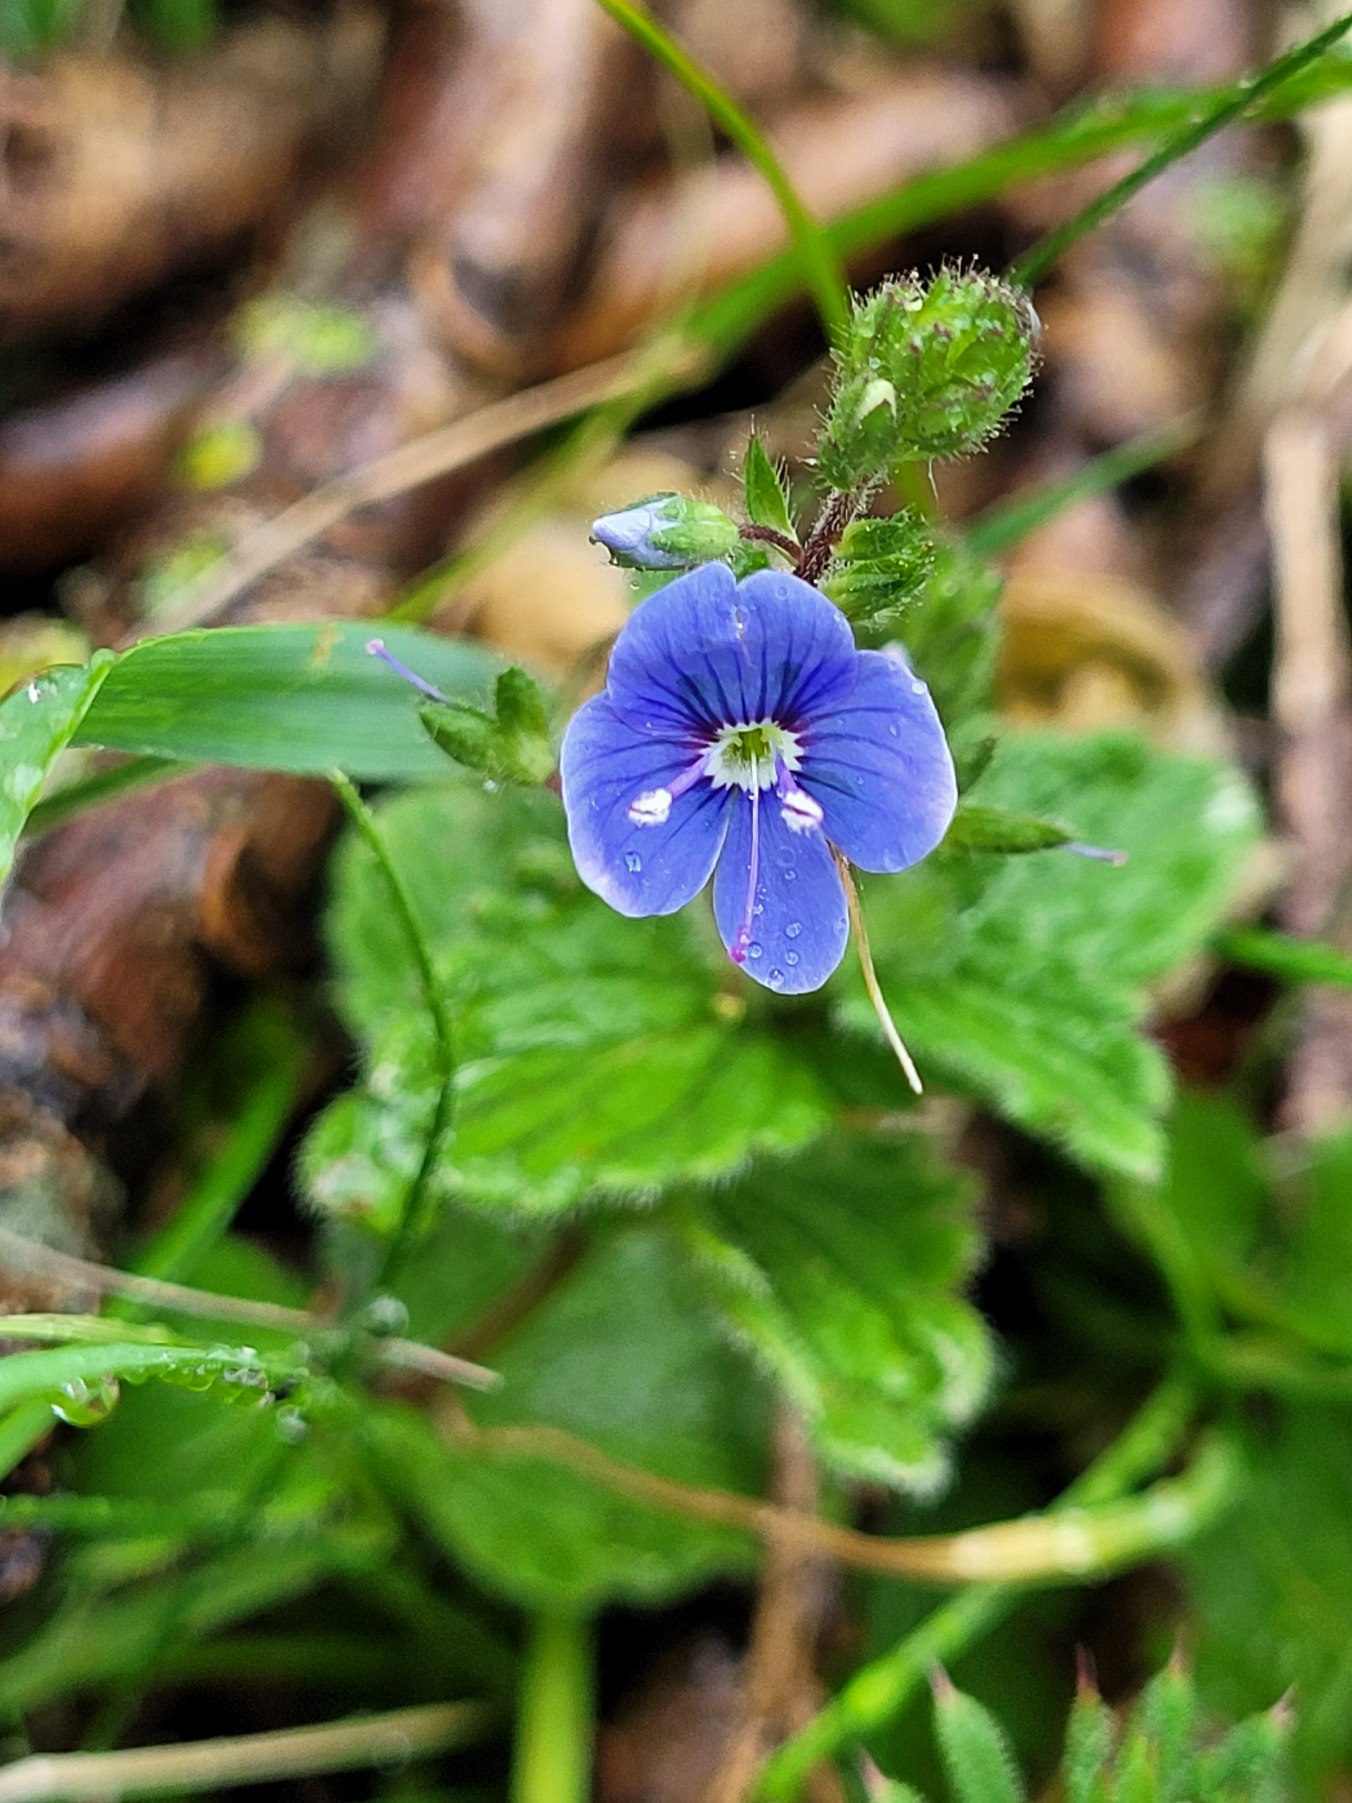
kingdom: Plantae
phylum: Tracheophyta
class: Magnoliopsida
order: Lamiales
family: Plantaginaceae
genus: Veronica
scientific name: Veronica chamaedrys
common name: Tveskægget ærenpris
